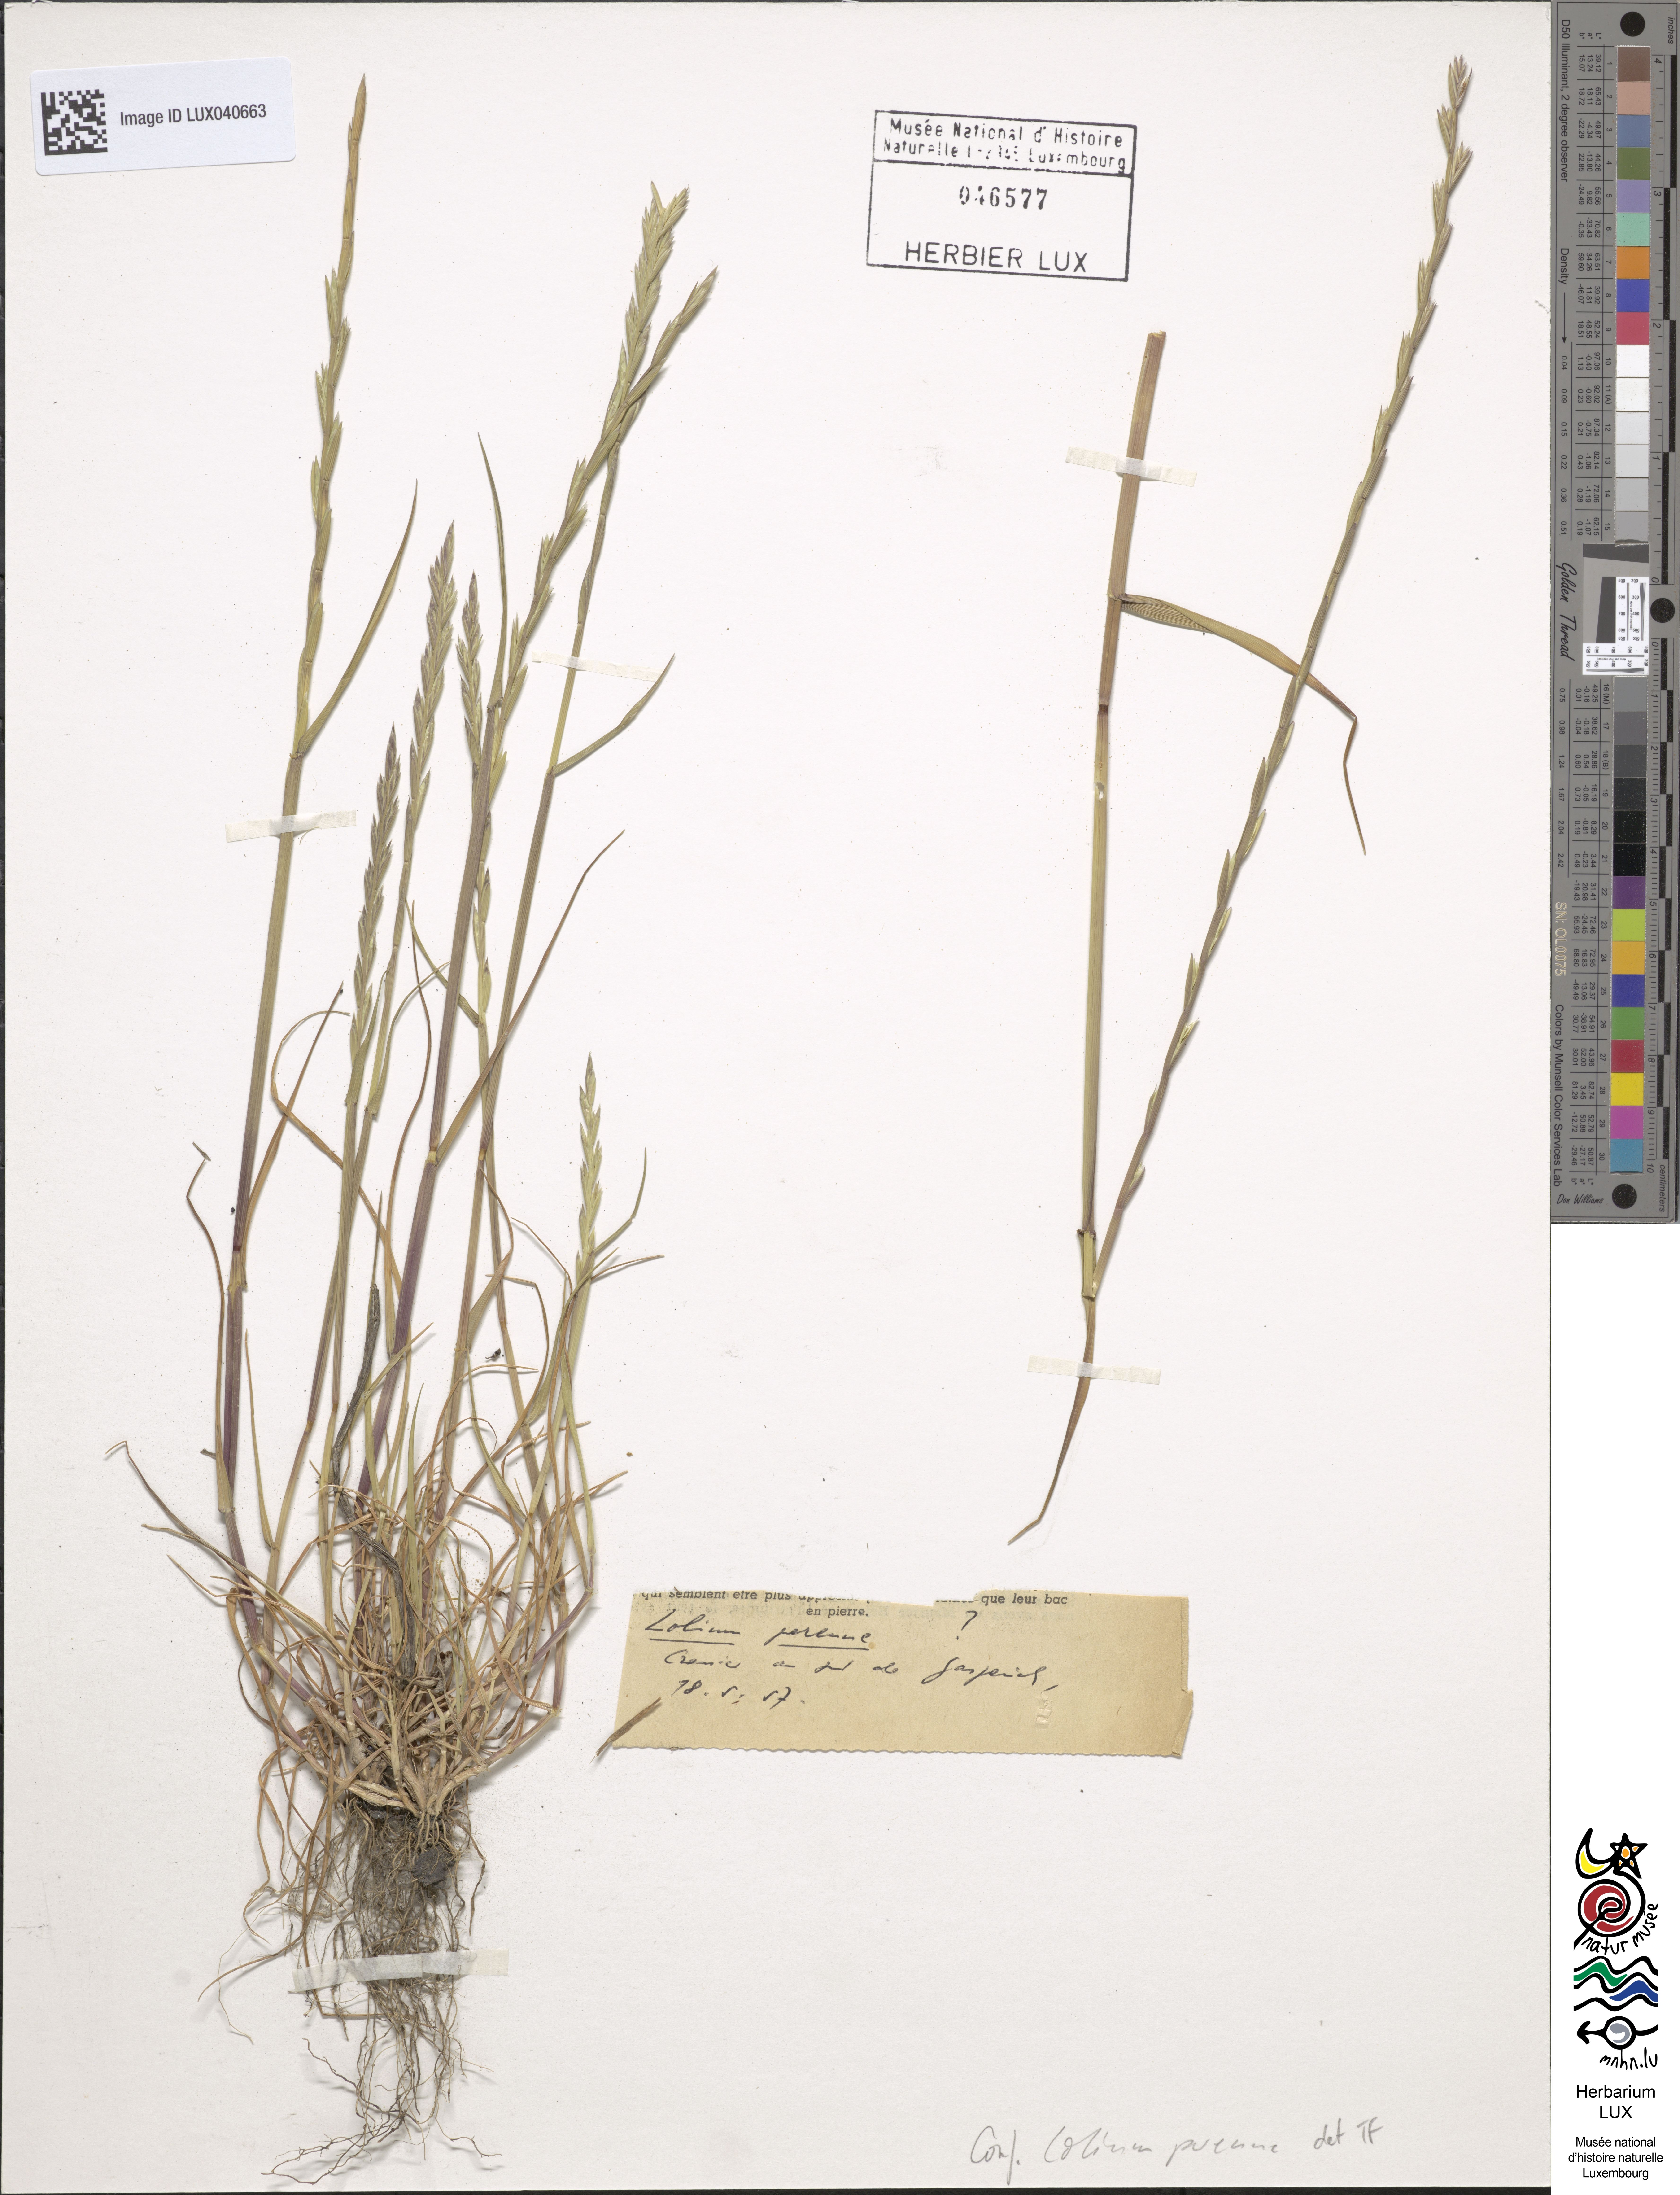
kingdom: Plantae
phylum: Tracheophyta
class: Liliopsida
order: Poales
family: Poaceae
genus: Lolium
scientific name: Lolium perenne
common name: Perennial ryegrass
